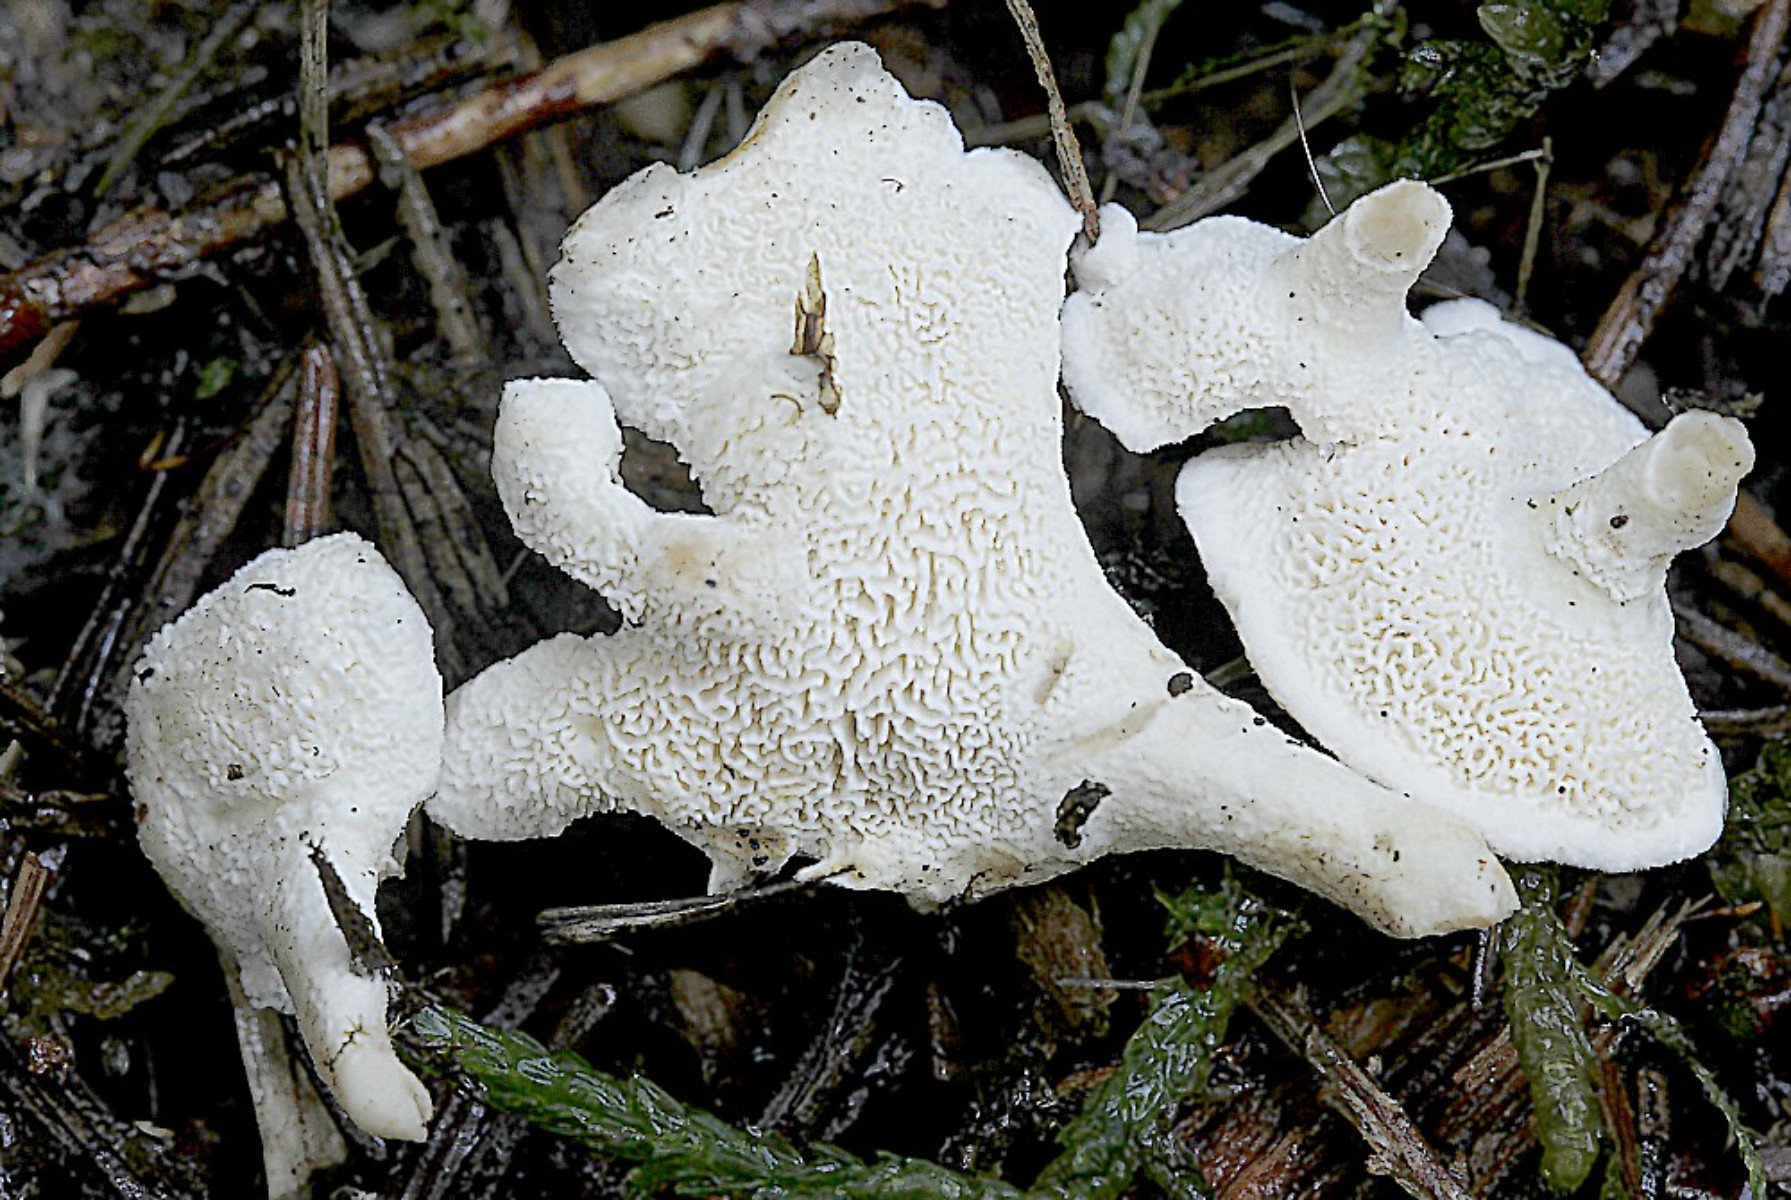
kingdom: Fungi
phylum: Basidiomycota
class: Agaricomycetes
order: Cantharellales
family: Hydnaceae
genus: Sistotrema
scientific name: Sistotrema confluens
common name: stilket kroneskorpe
